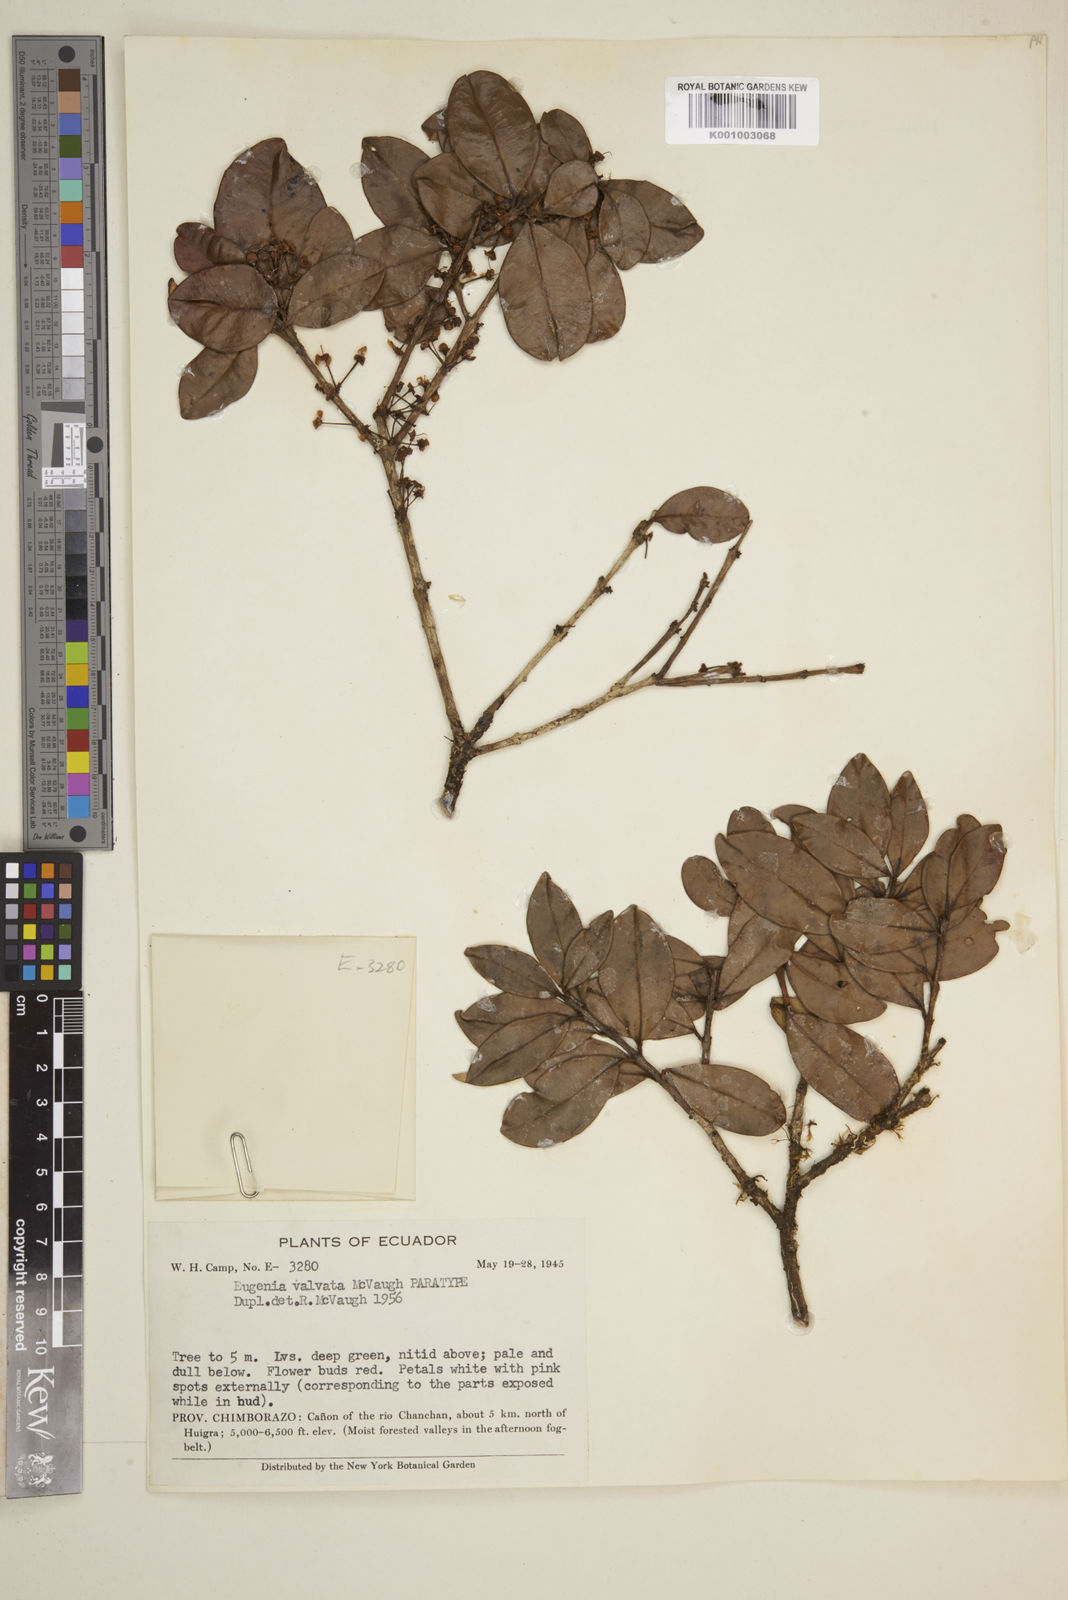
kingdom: Plantae
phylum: Tracheophyta
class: Magnoliopsida
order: Myrtales
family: Myrtaceae
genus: Eugenia
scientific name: Eugenia valvata
